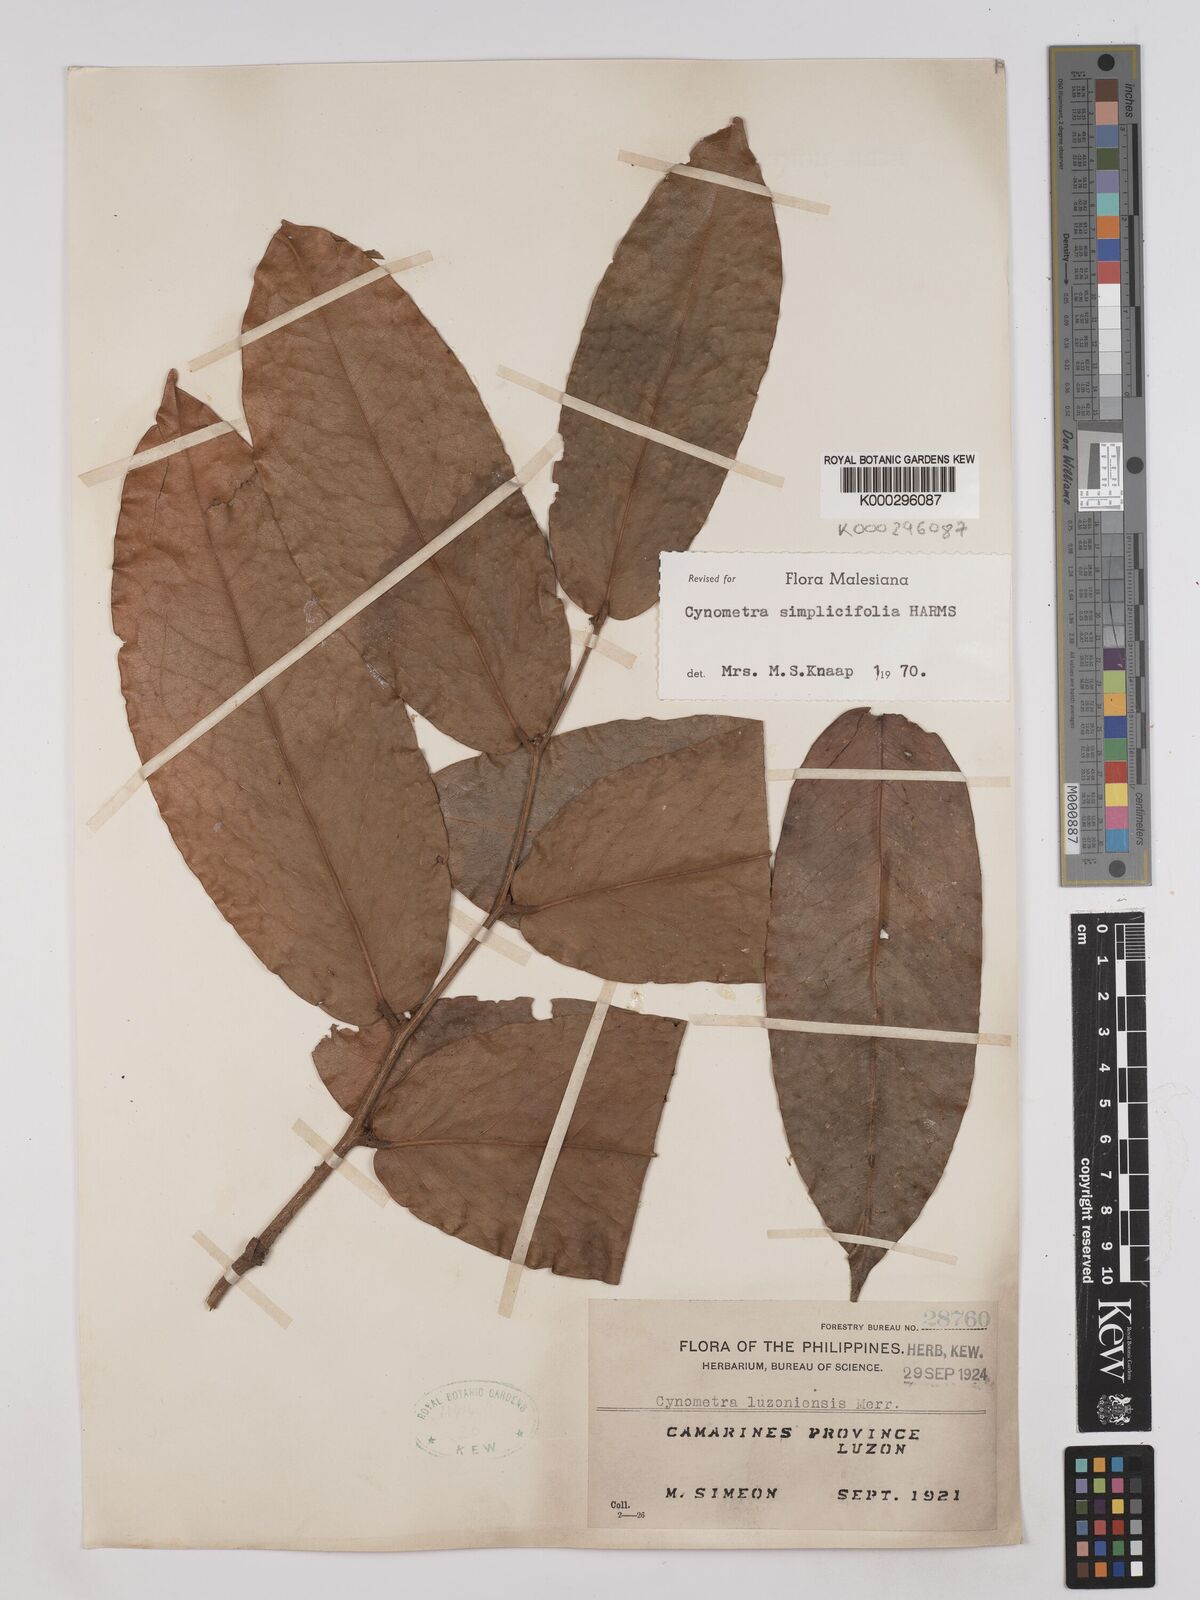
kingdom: Plantae
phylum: Tracheophyta
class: Magnoliopsida
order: Fabales
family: Fabaceae
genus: Cynometra
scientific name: Cynometra simplicifolia
